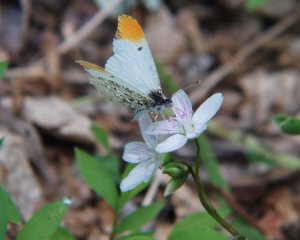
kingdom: Animalia
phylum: Arthropoda
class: Insecta
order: Lepidoptera
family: Pieridae
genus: Anthocharis
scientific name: Anthocharis midea
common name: Falcate Orangetip
